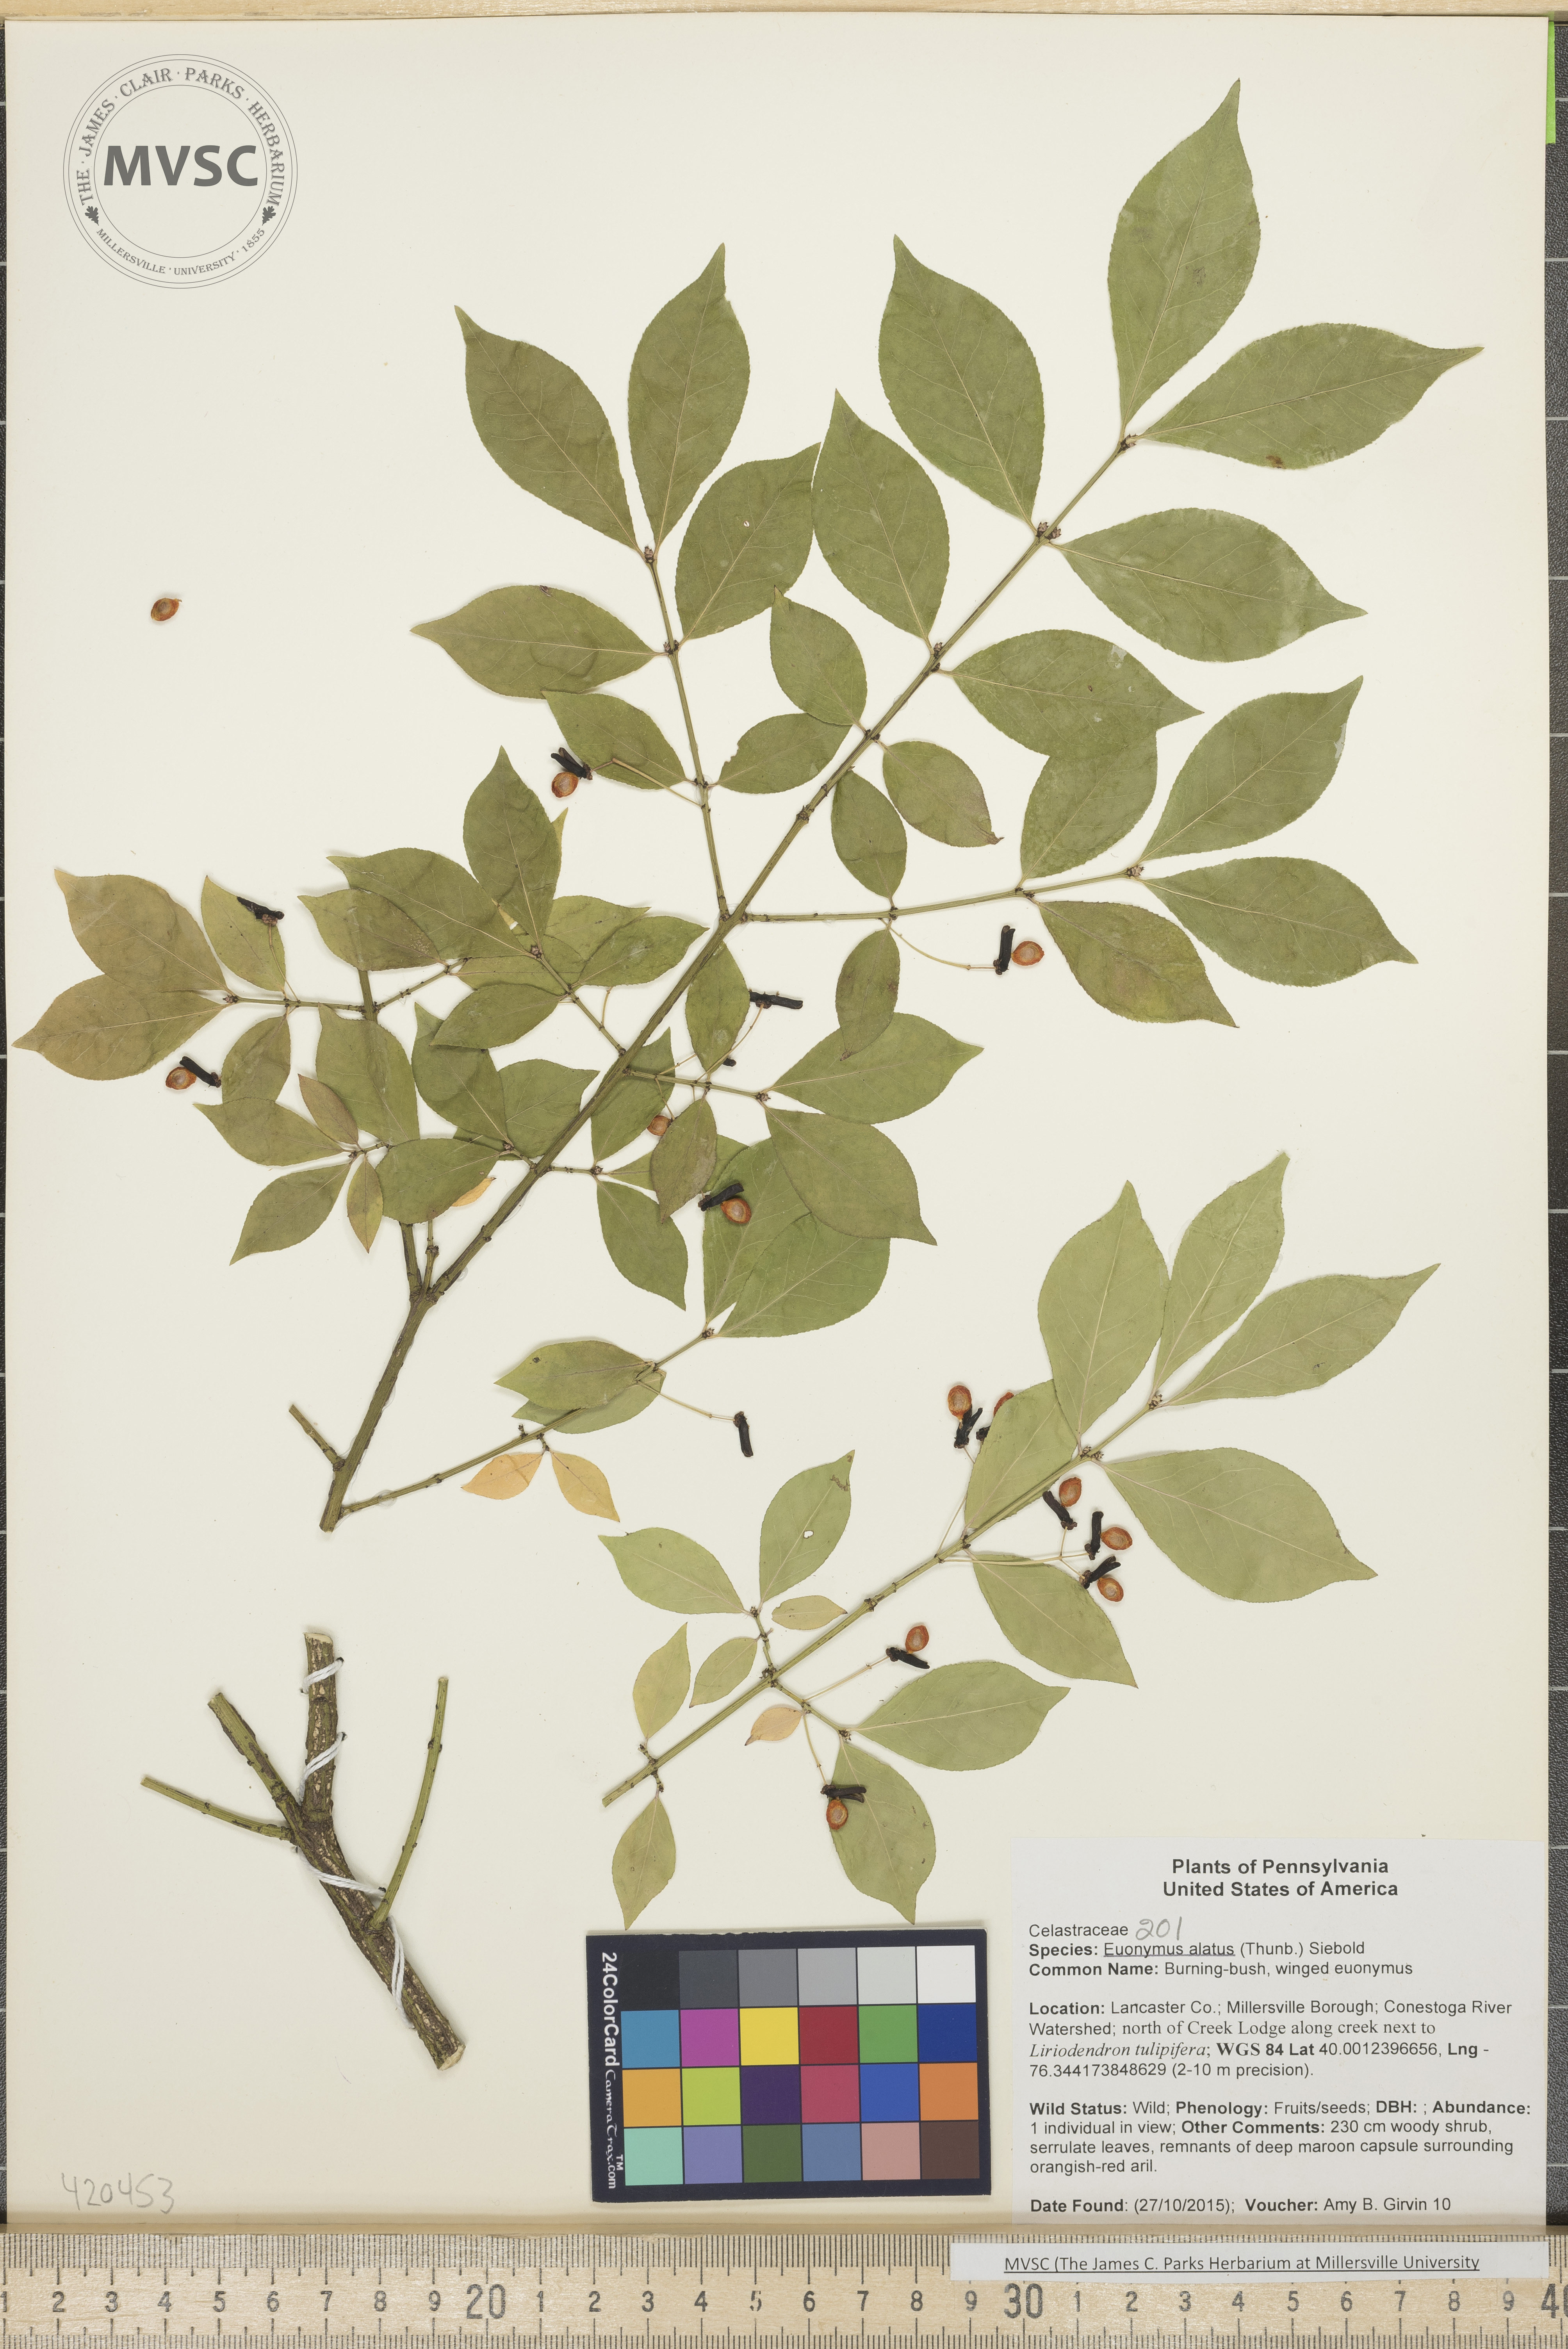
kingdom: Plantae
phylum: Tracheophyta
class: Magnoliopsida
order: Celastrales
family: Celastraceae
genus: Euonymus
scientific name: Euonymus alatus
